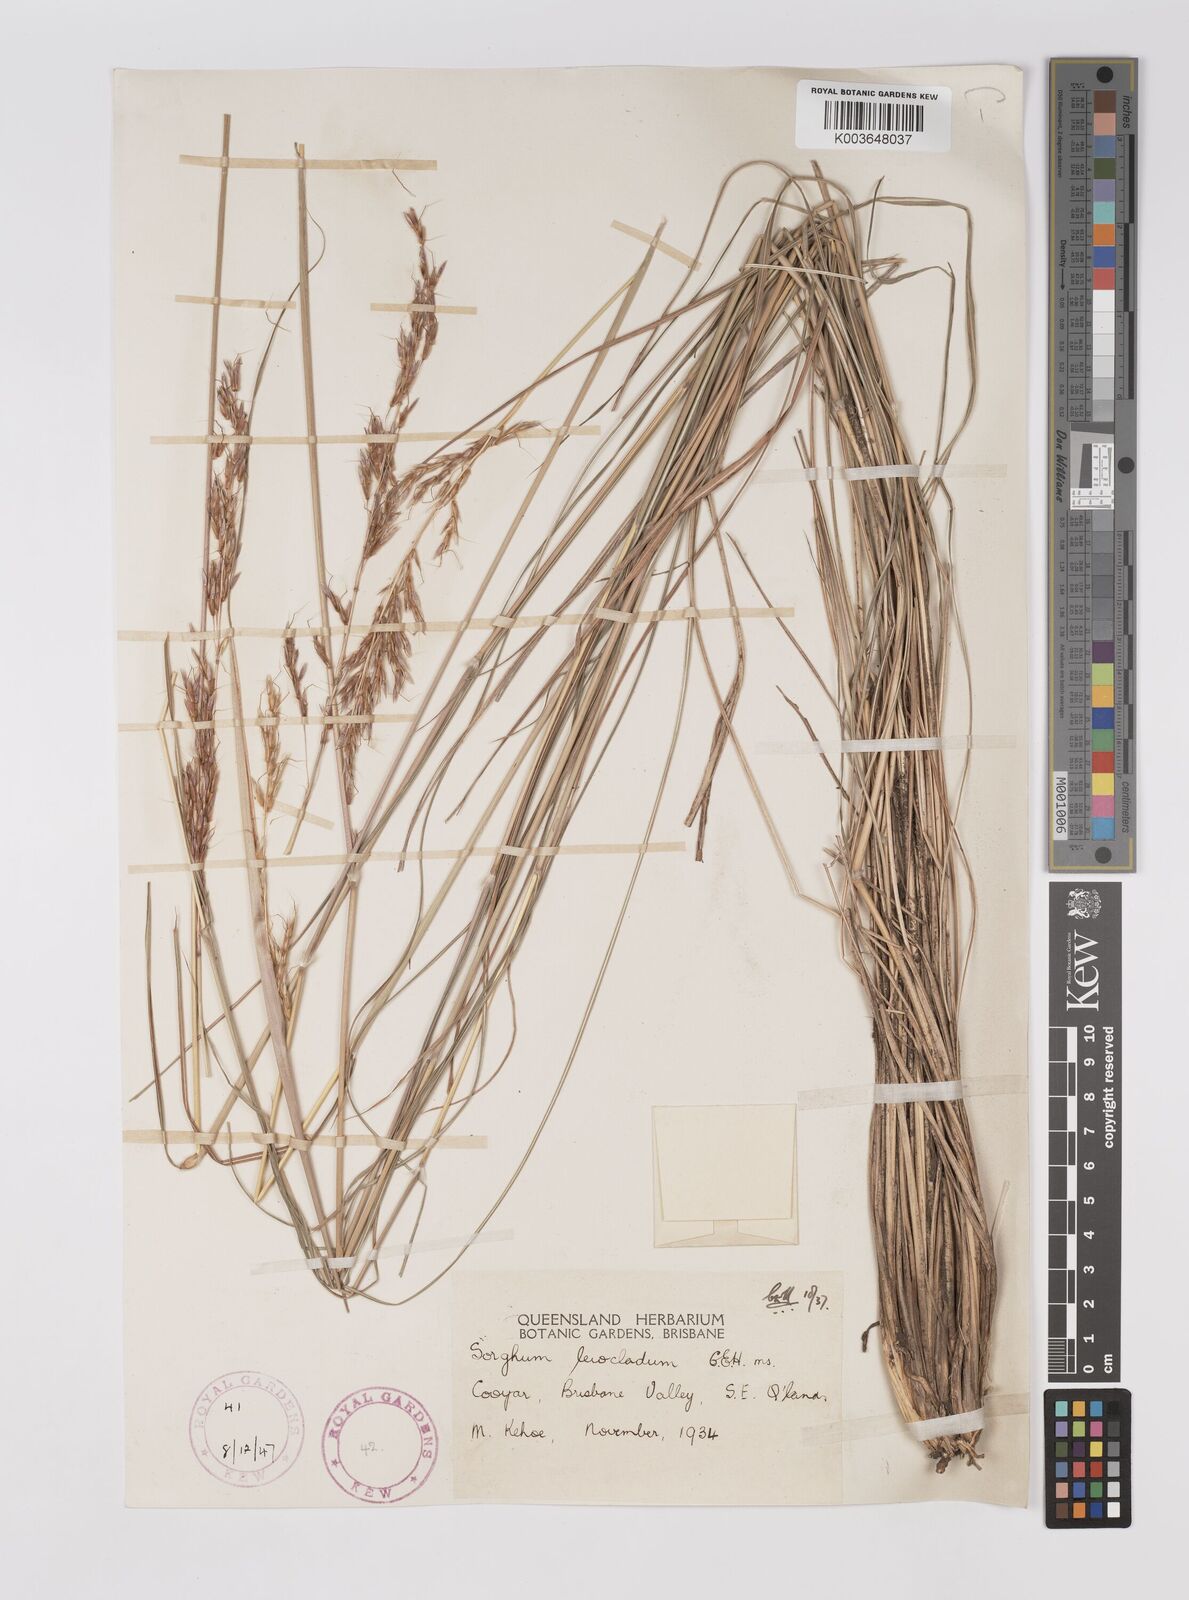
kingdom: Plantae
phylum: Tracheophyta
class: Liliopsida
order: Poales
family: Poaceae
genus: Sarga
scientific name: Sarga leioclada
